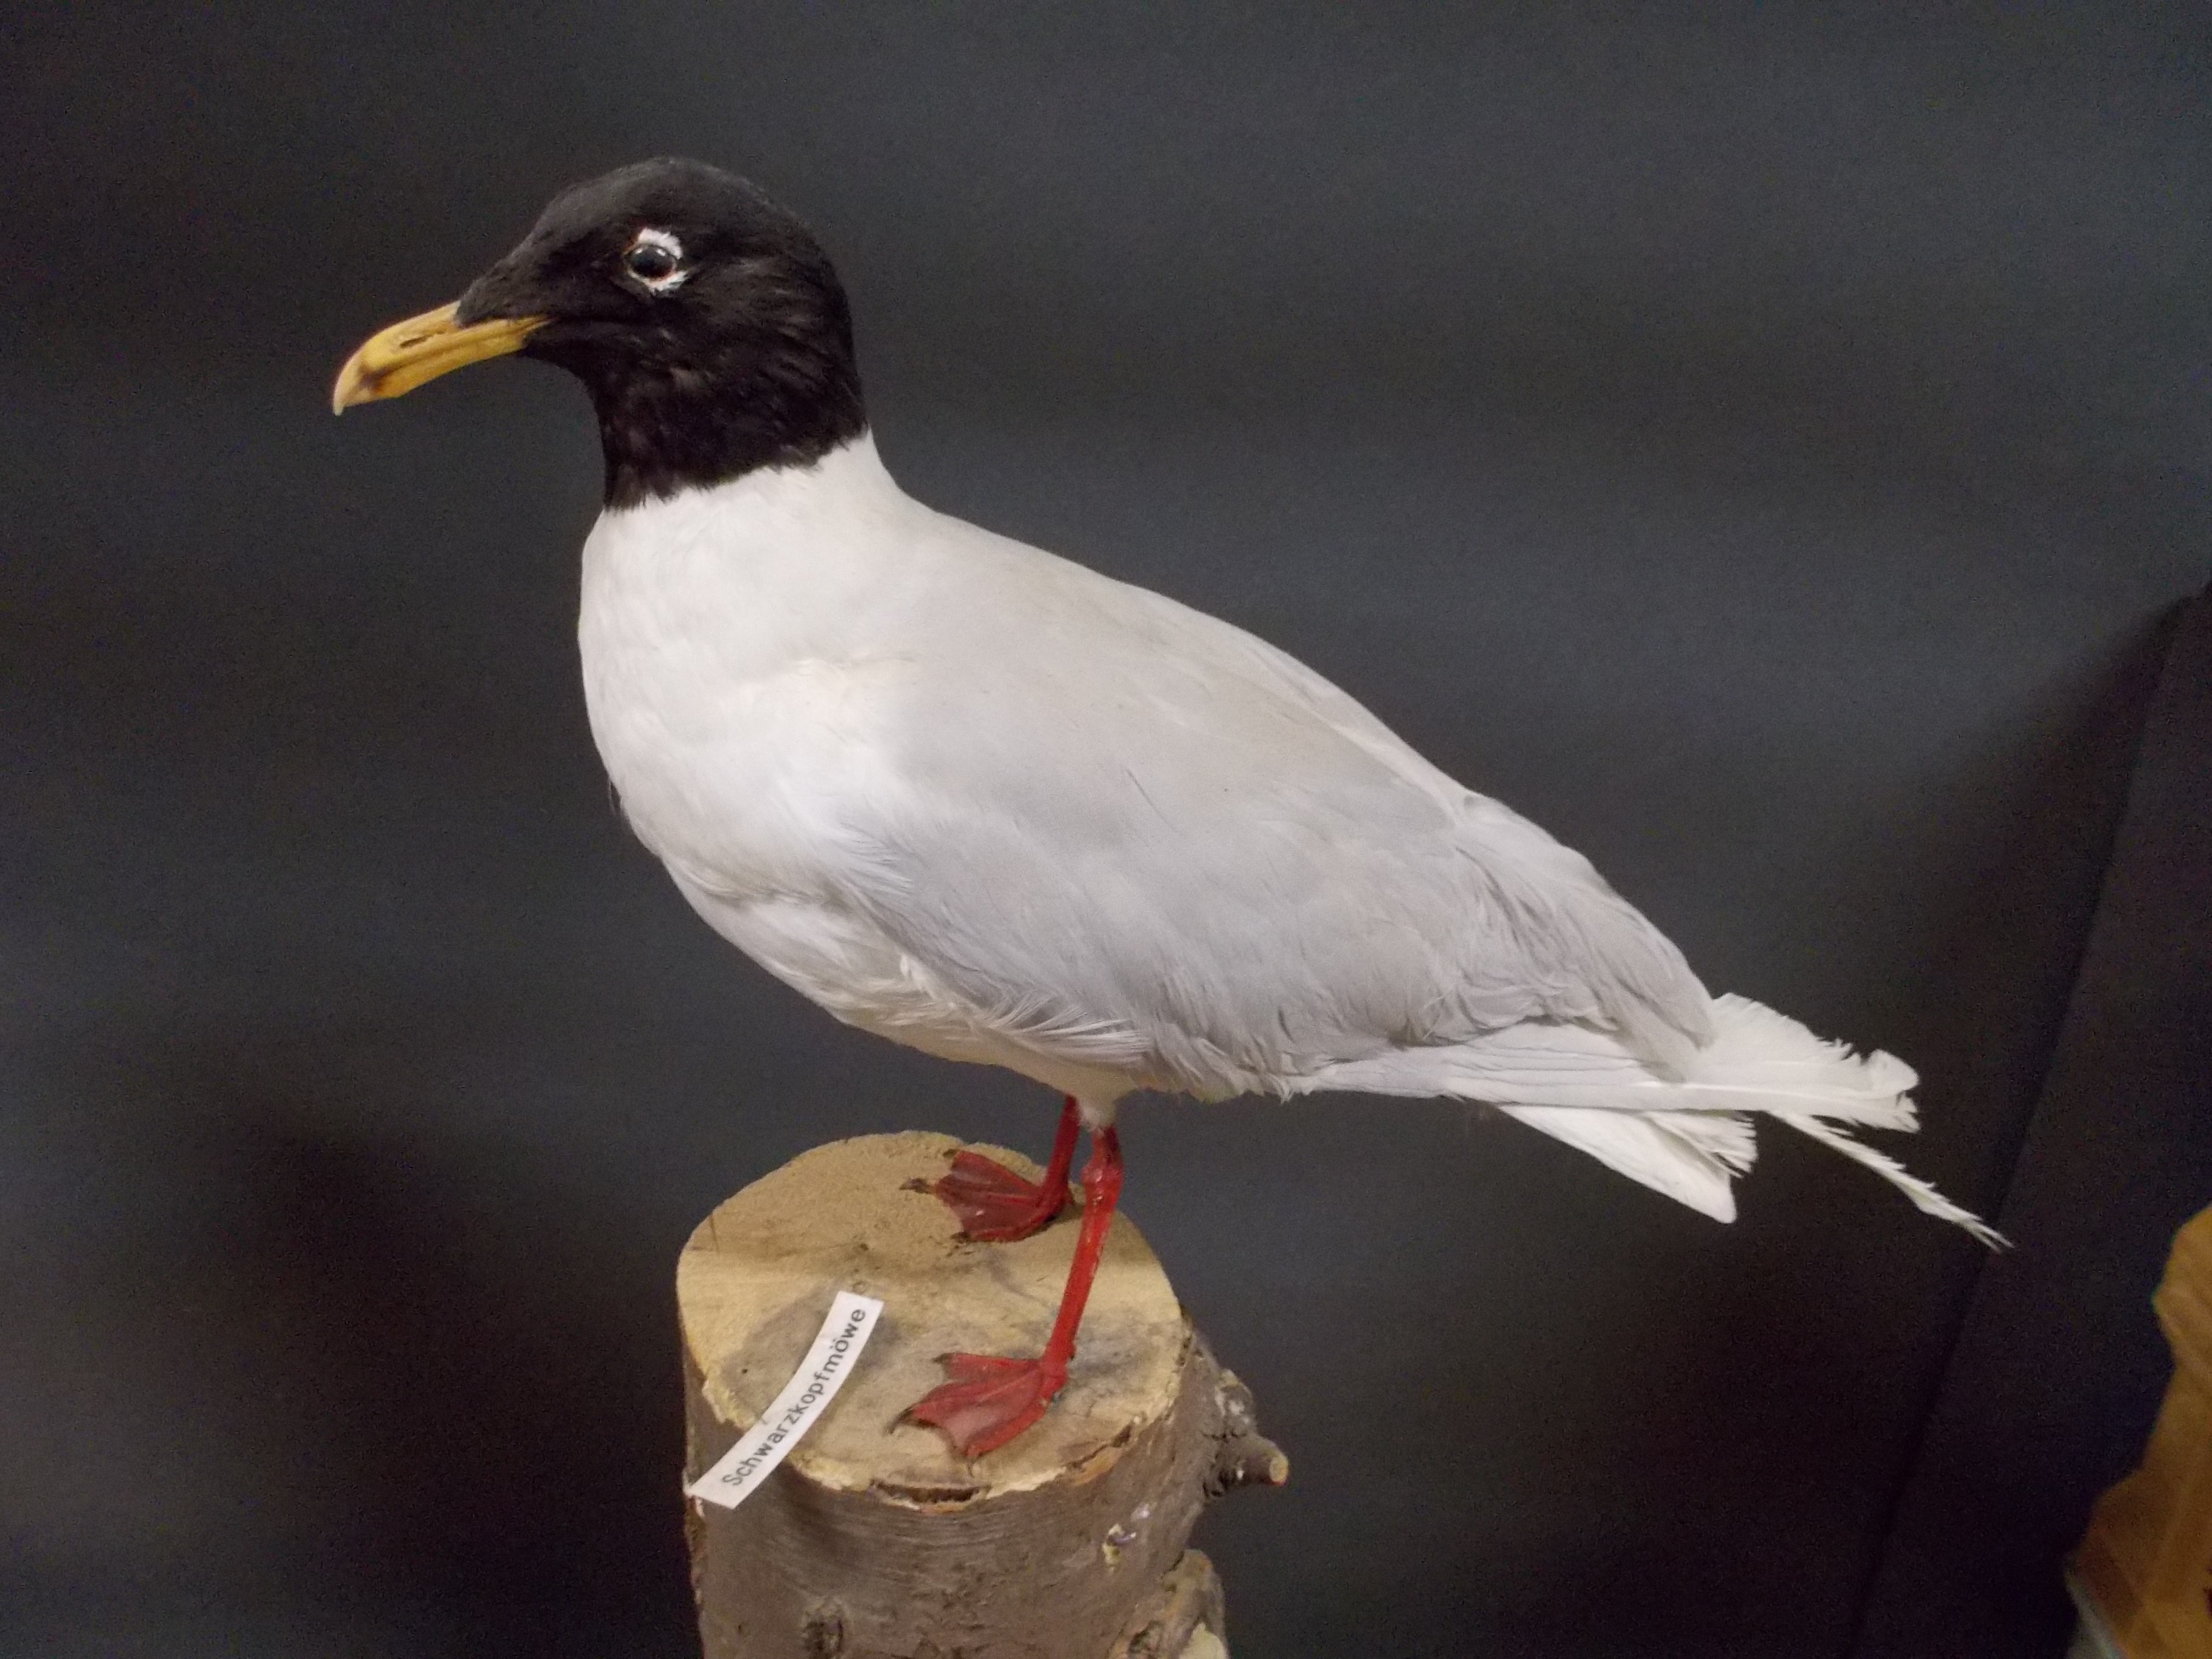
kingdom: Animalia
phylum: Chordata
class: Aves
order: Charadriiformes
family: Laridae
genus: Ichthyaetus
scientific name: Ichthyaetus melanocephalus
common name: Mediterranean gull
